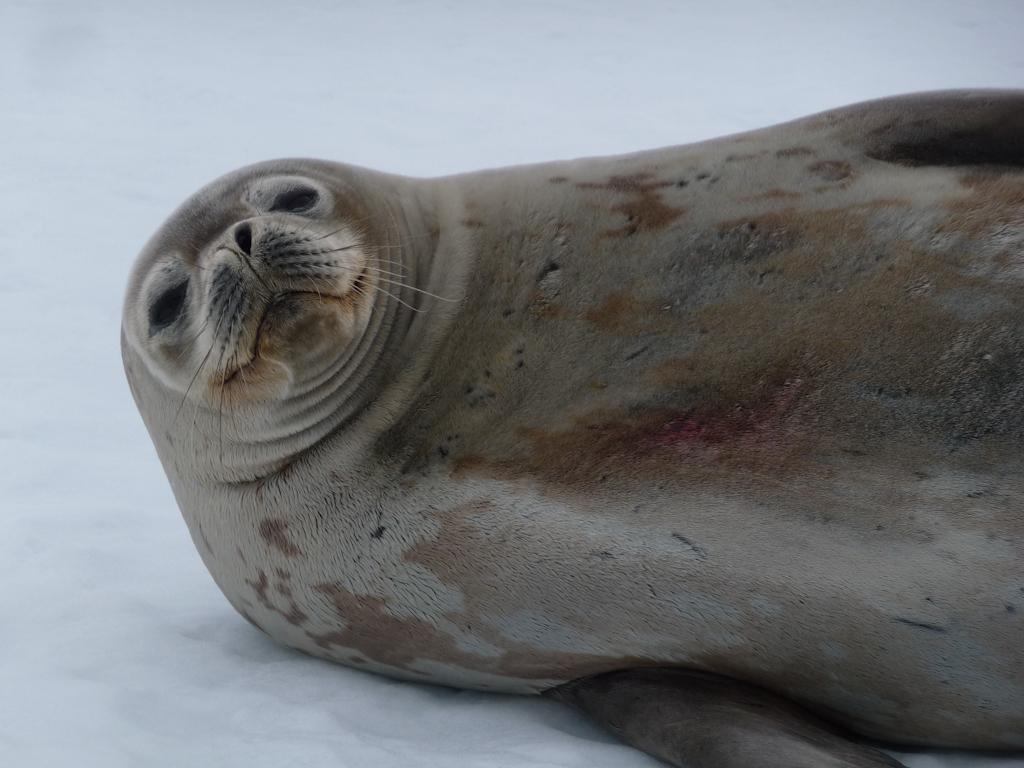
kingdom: Animalia
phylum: Chordata
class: Mammalia
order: Carnivora
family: Phocidae
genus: Leptonychotes
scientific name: Leptonychotes weddellii
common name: Weddell Seal
